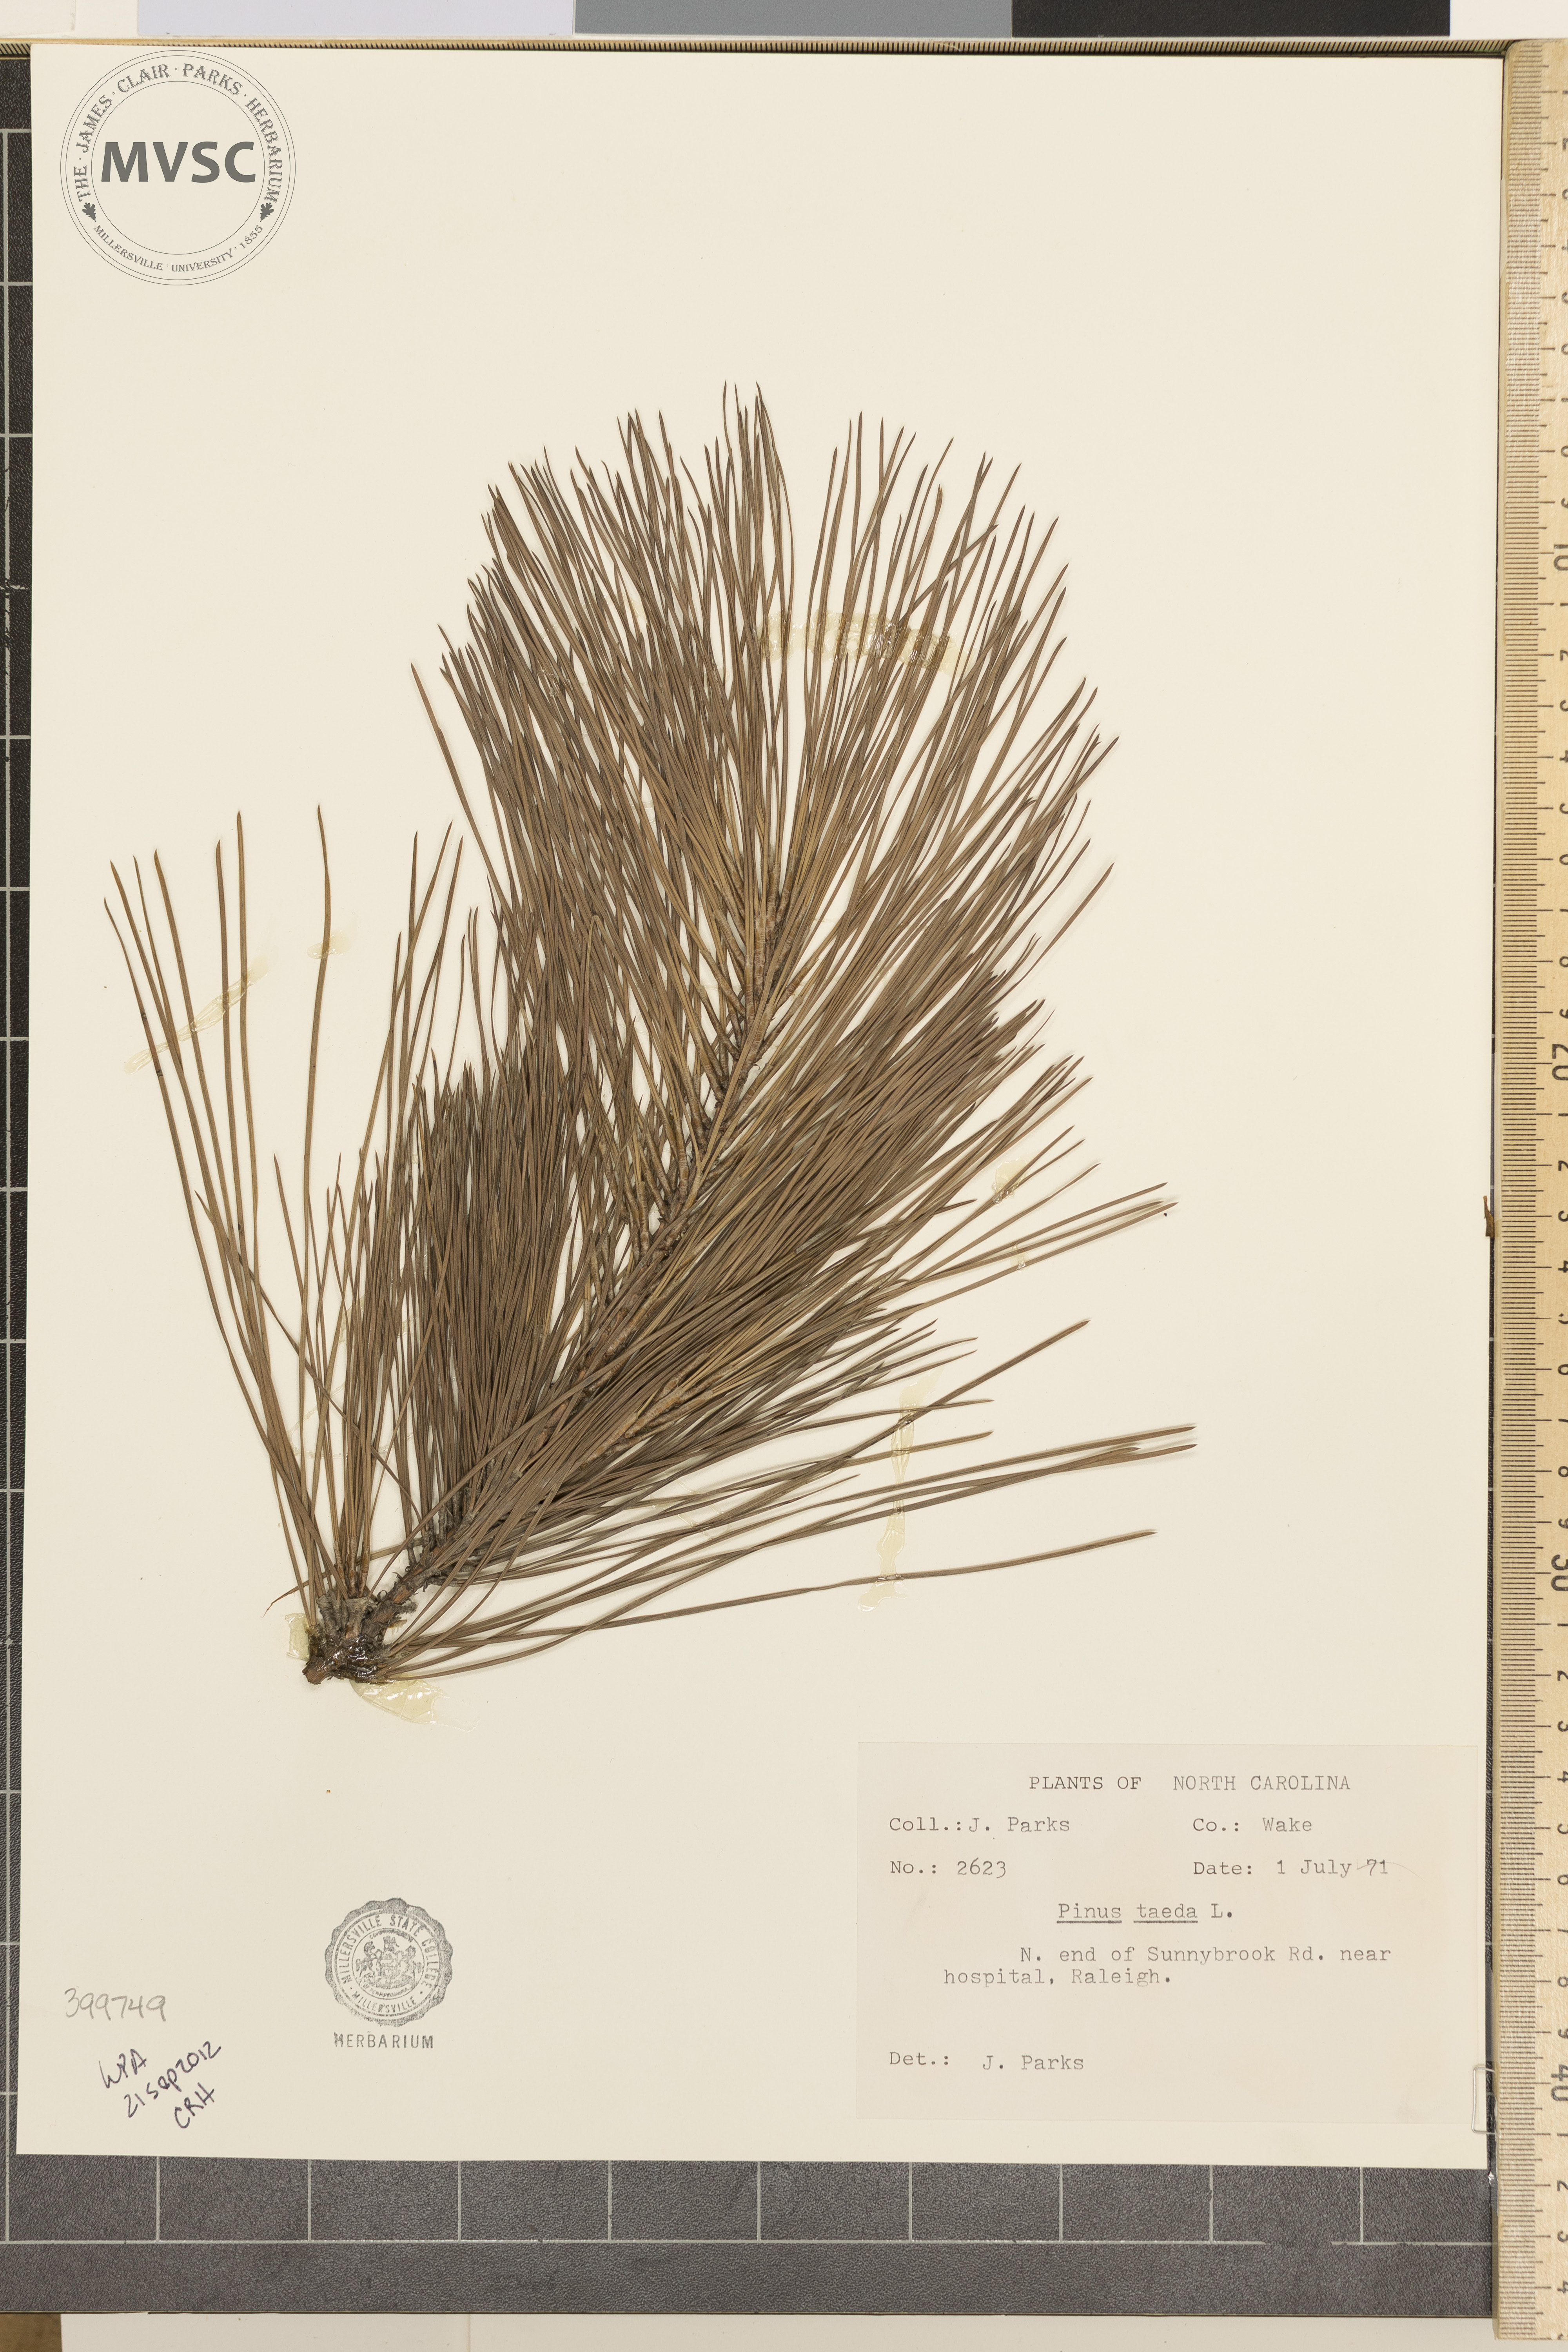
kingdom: Plantae
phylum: Tracheophyta
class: Pinopsida
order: Pinales
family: Pinaceae
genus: Pinus
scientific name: Pinus taeda
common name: loblolly pine
